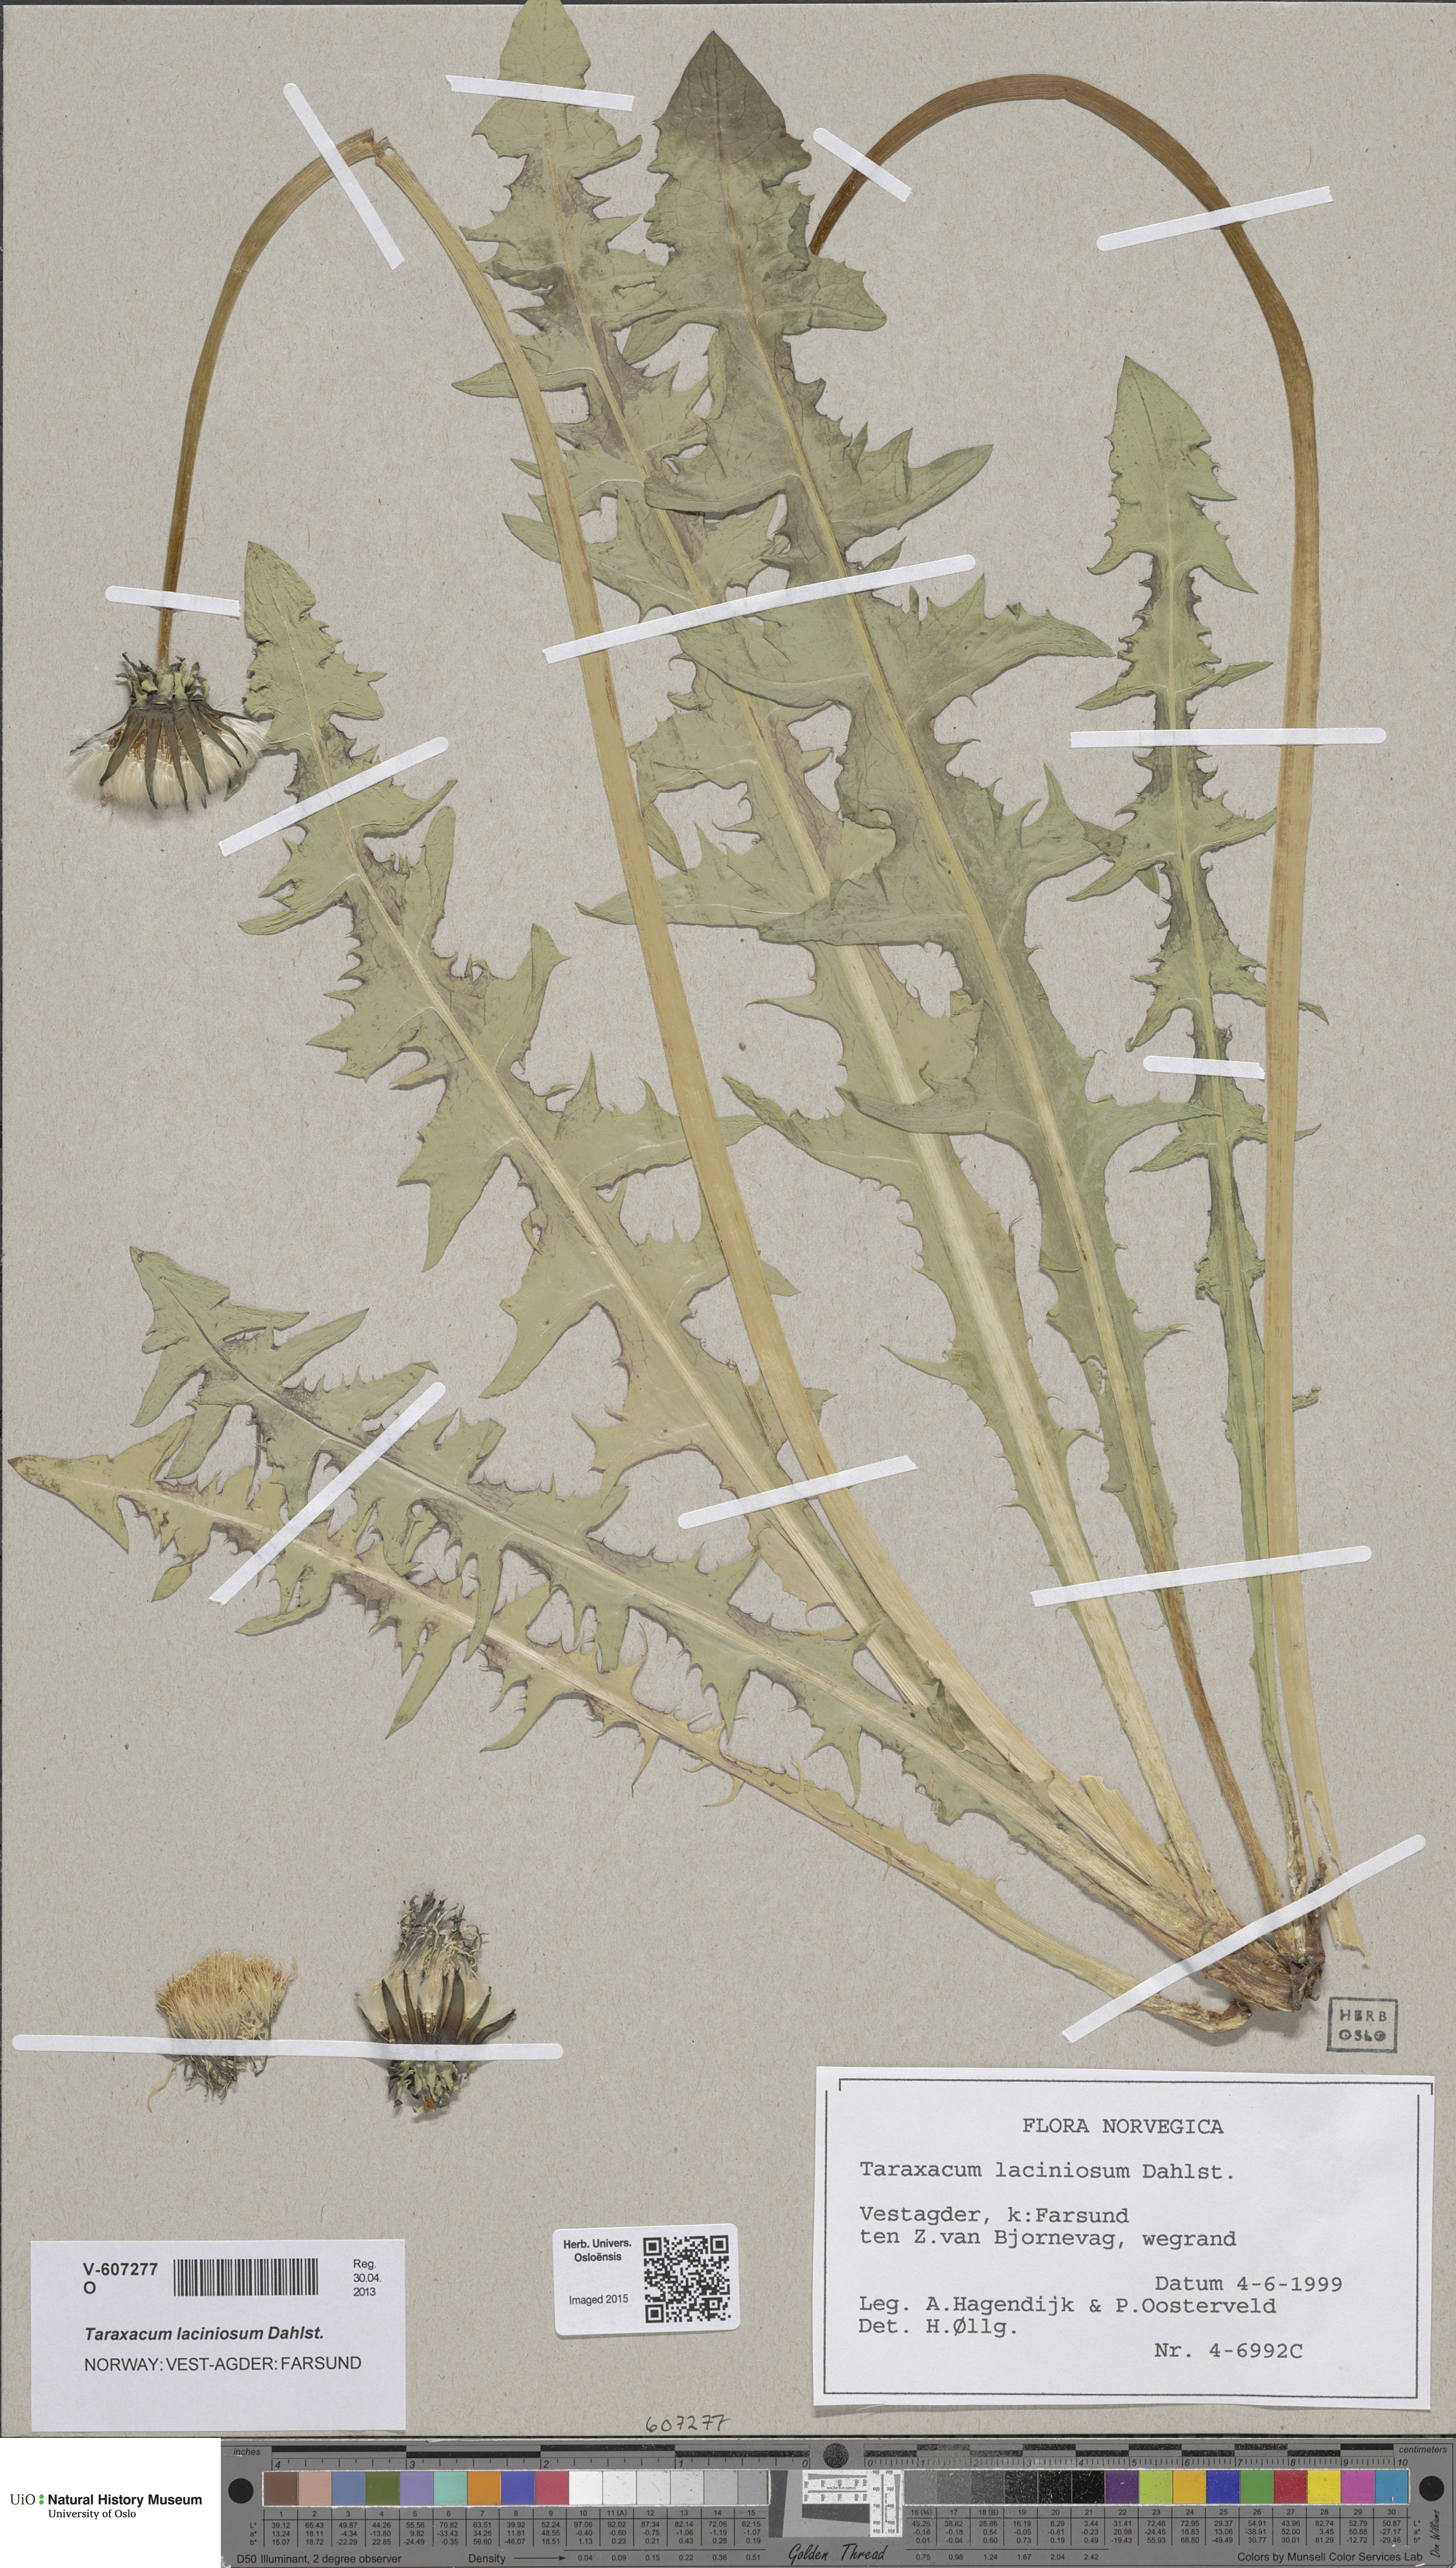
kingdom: Plantae
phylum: Tracheophyta
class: Magnoliopsida
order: Asterales
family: Asteraceae
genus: Taraxacum
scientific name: Taraxacum laciniosum
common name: Divided-leaved dandelion
